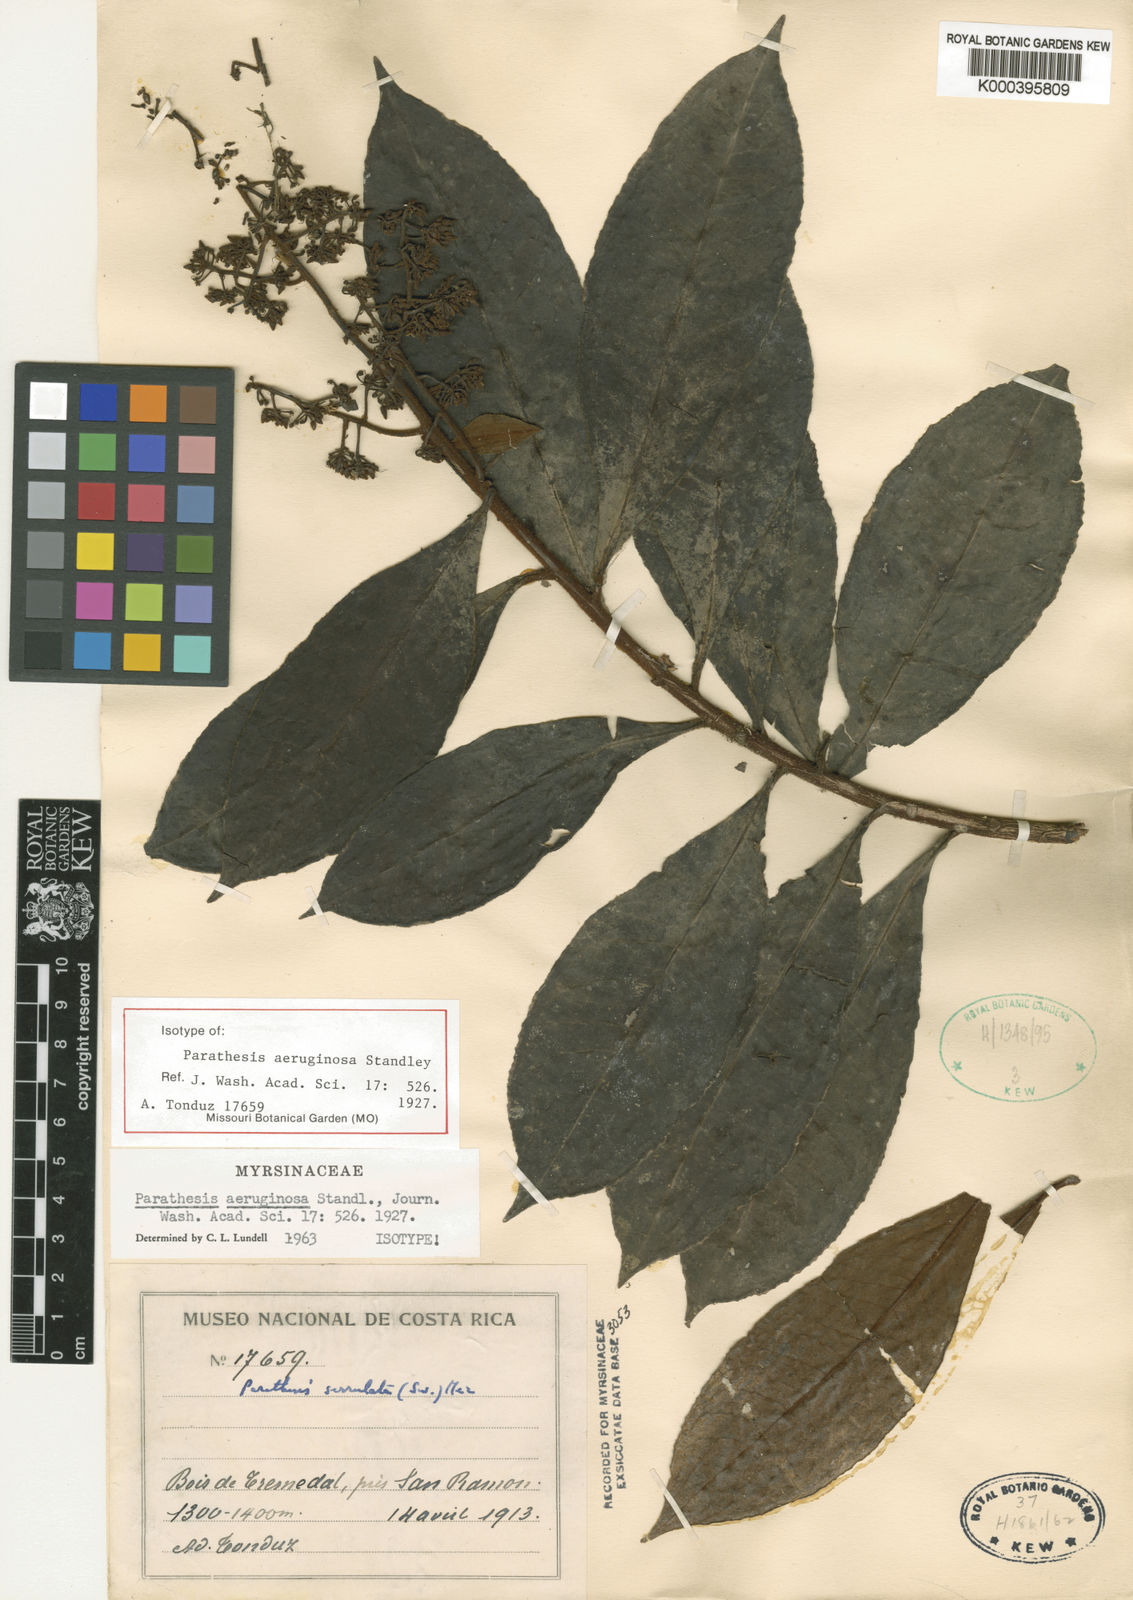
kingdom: Plantae
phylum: Tracheophyta
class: Magnoliopsida
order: Ericales
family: Primulaceae
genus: Parathesis
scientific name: Parathesis aeruginosa
